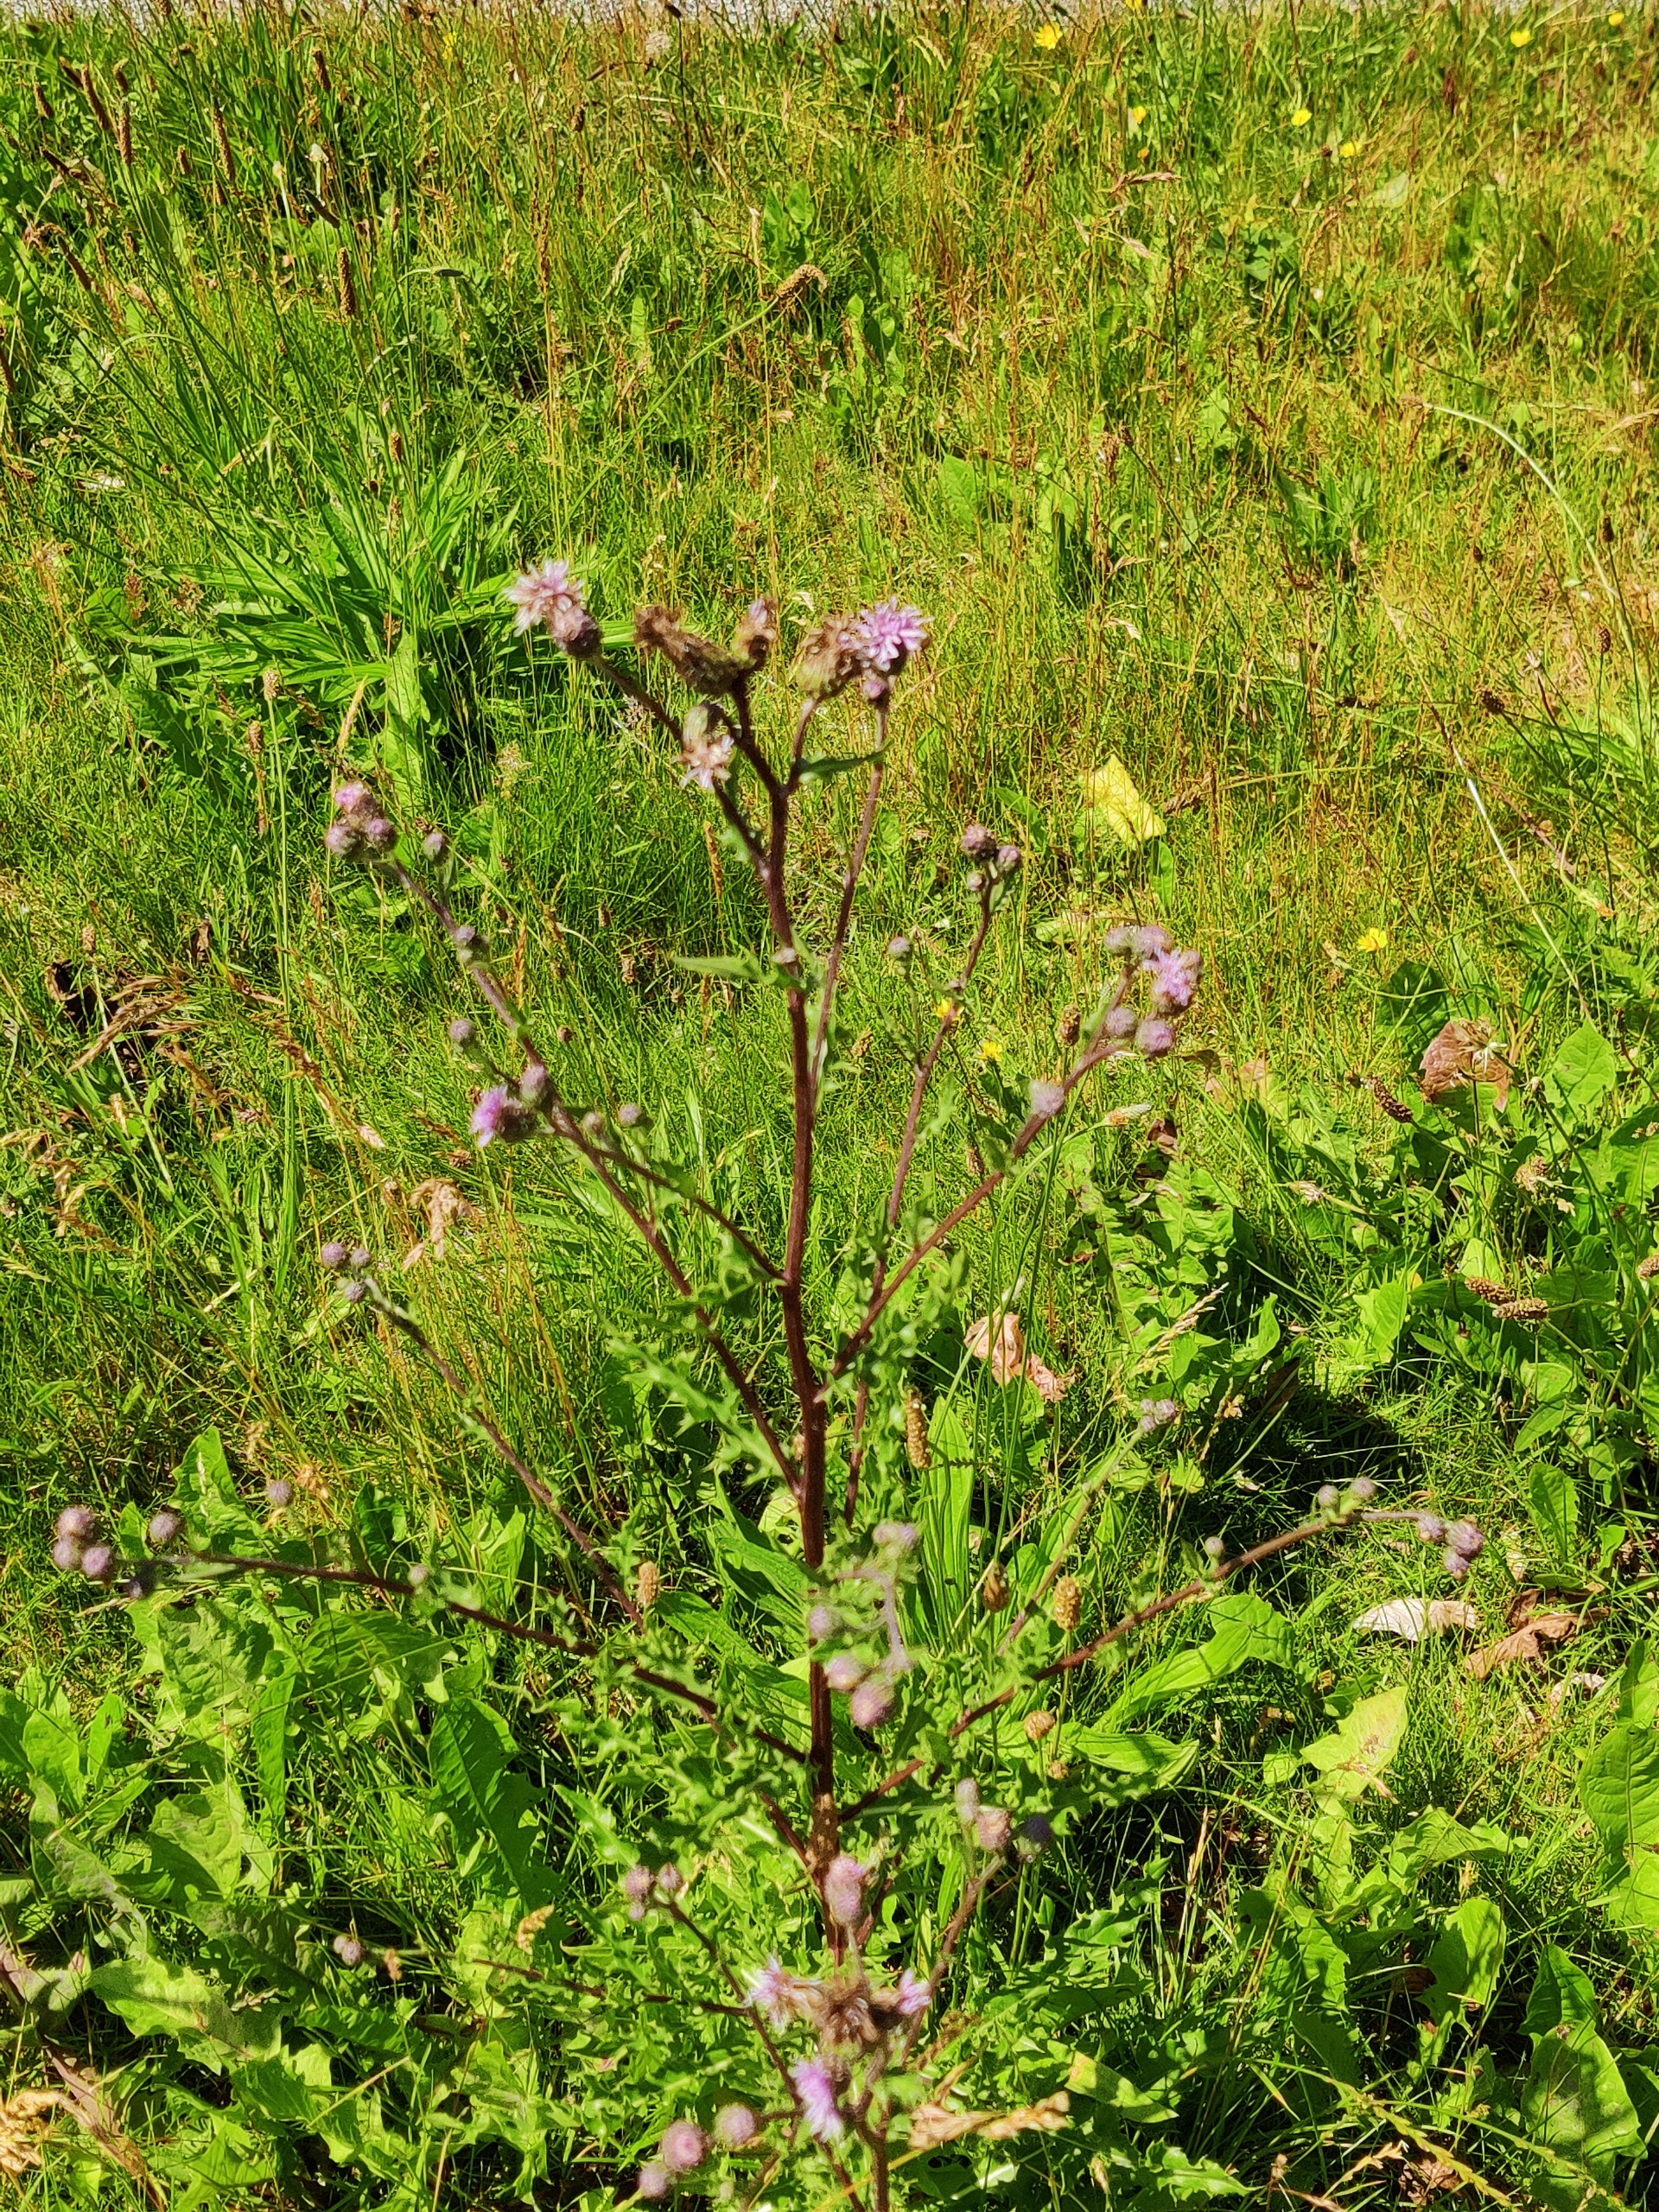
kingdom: Plantae
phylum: Tracheophyta
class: Magnoliopsida
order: Asterales
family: Asteraceae
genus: Cirsium
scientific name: Cirsium arvense
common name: Ager-tidsel
